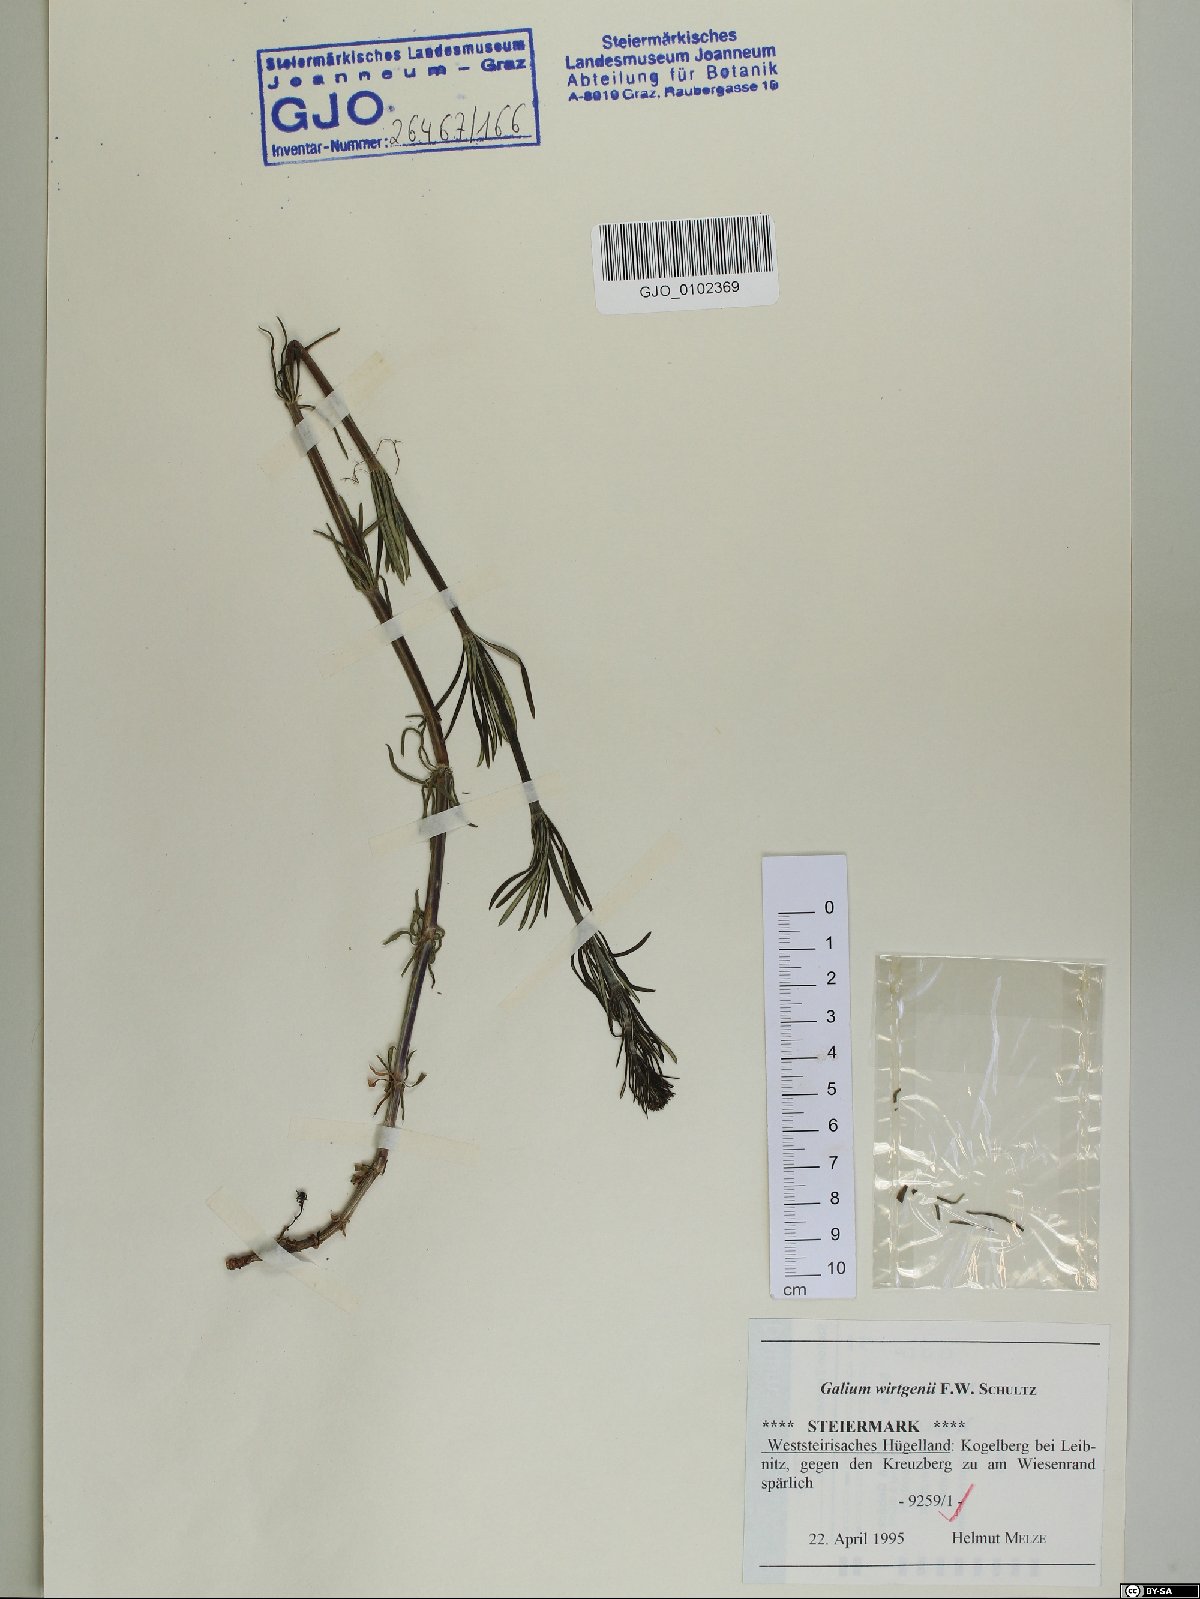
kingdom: Plantae
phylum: Tracheophyta
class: Magnoliopsida
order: Gentianales
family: Rubiaceae
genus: Galium
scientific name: Galium verum
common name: Lady's bedstraw
